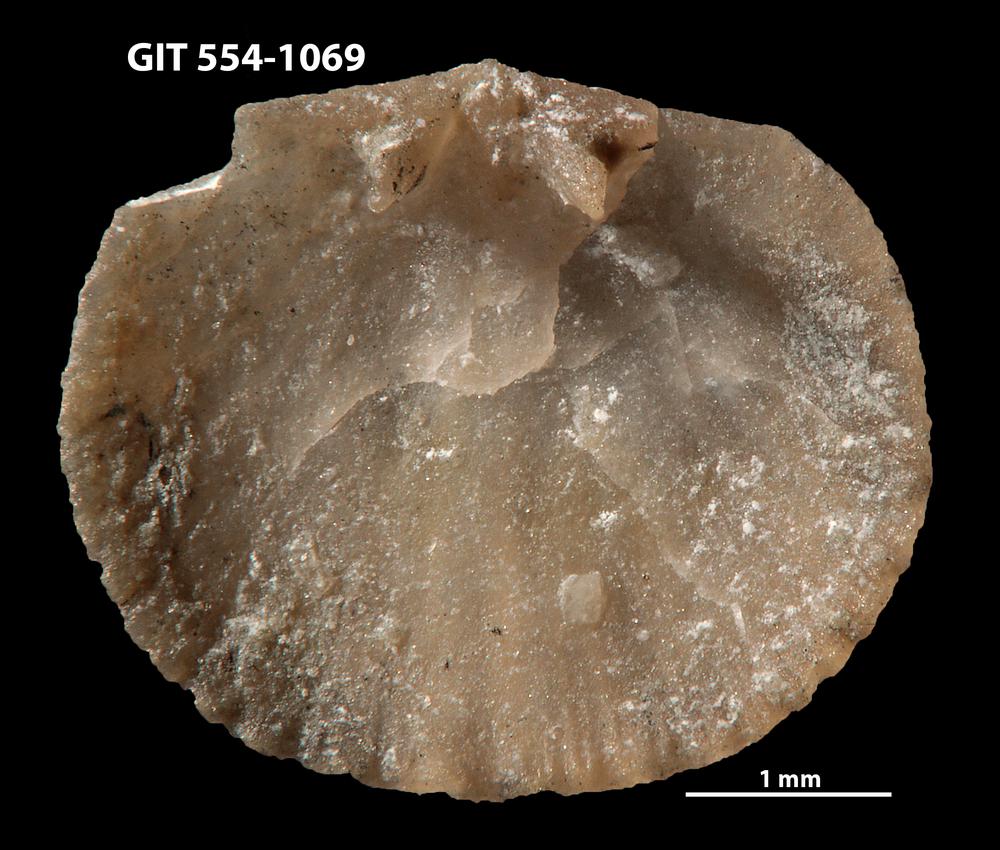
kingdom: Animalia
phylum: Brachiopoda
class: Rhynchonellata
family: Rhipidomellidae
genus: Mendacella
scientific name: Mendacella circularis
